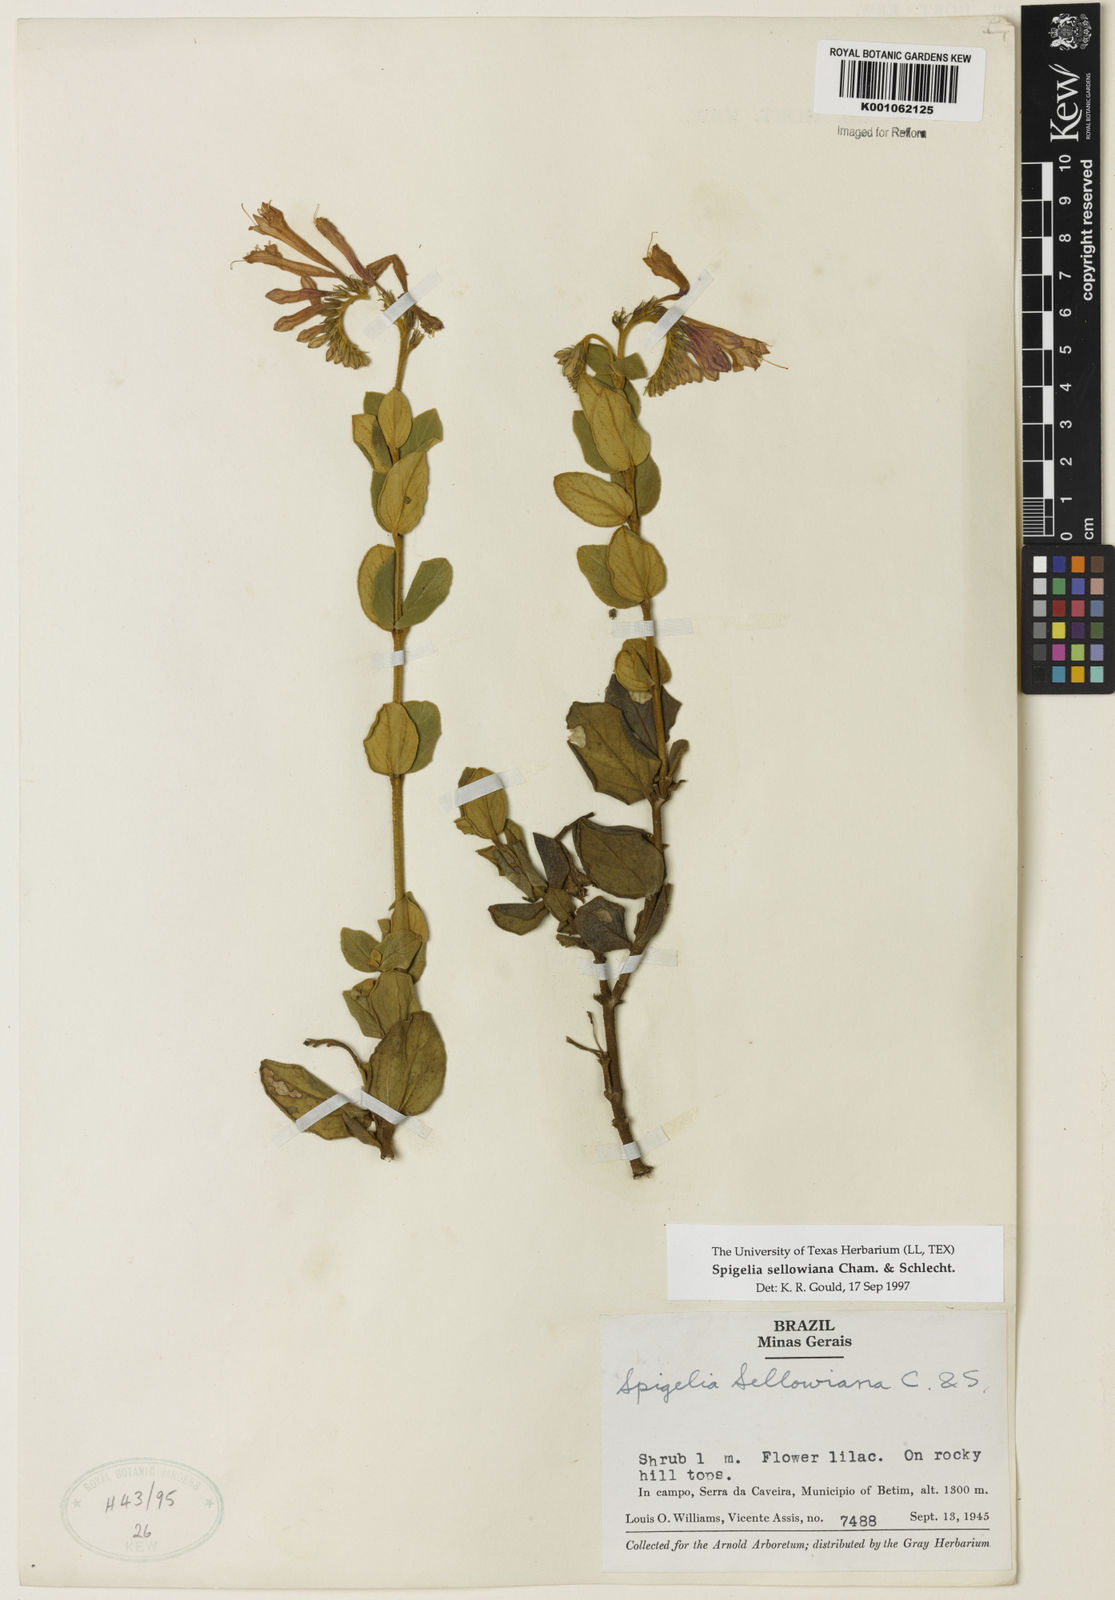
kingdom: Plantae
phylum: Tracheophyta
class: Magnoliopsida
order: Gentianales
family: Loganiaceae
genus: Spigelia
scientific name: Spigelia sellowiana
